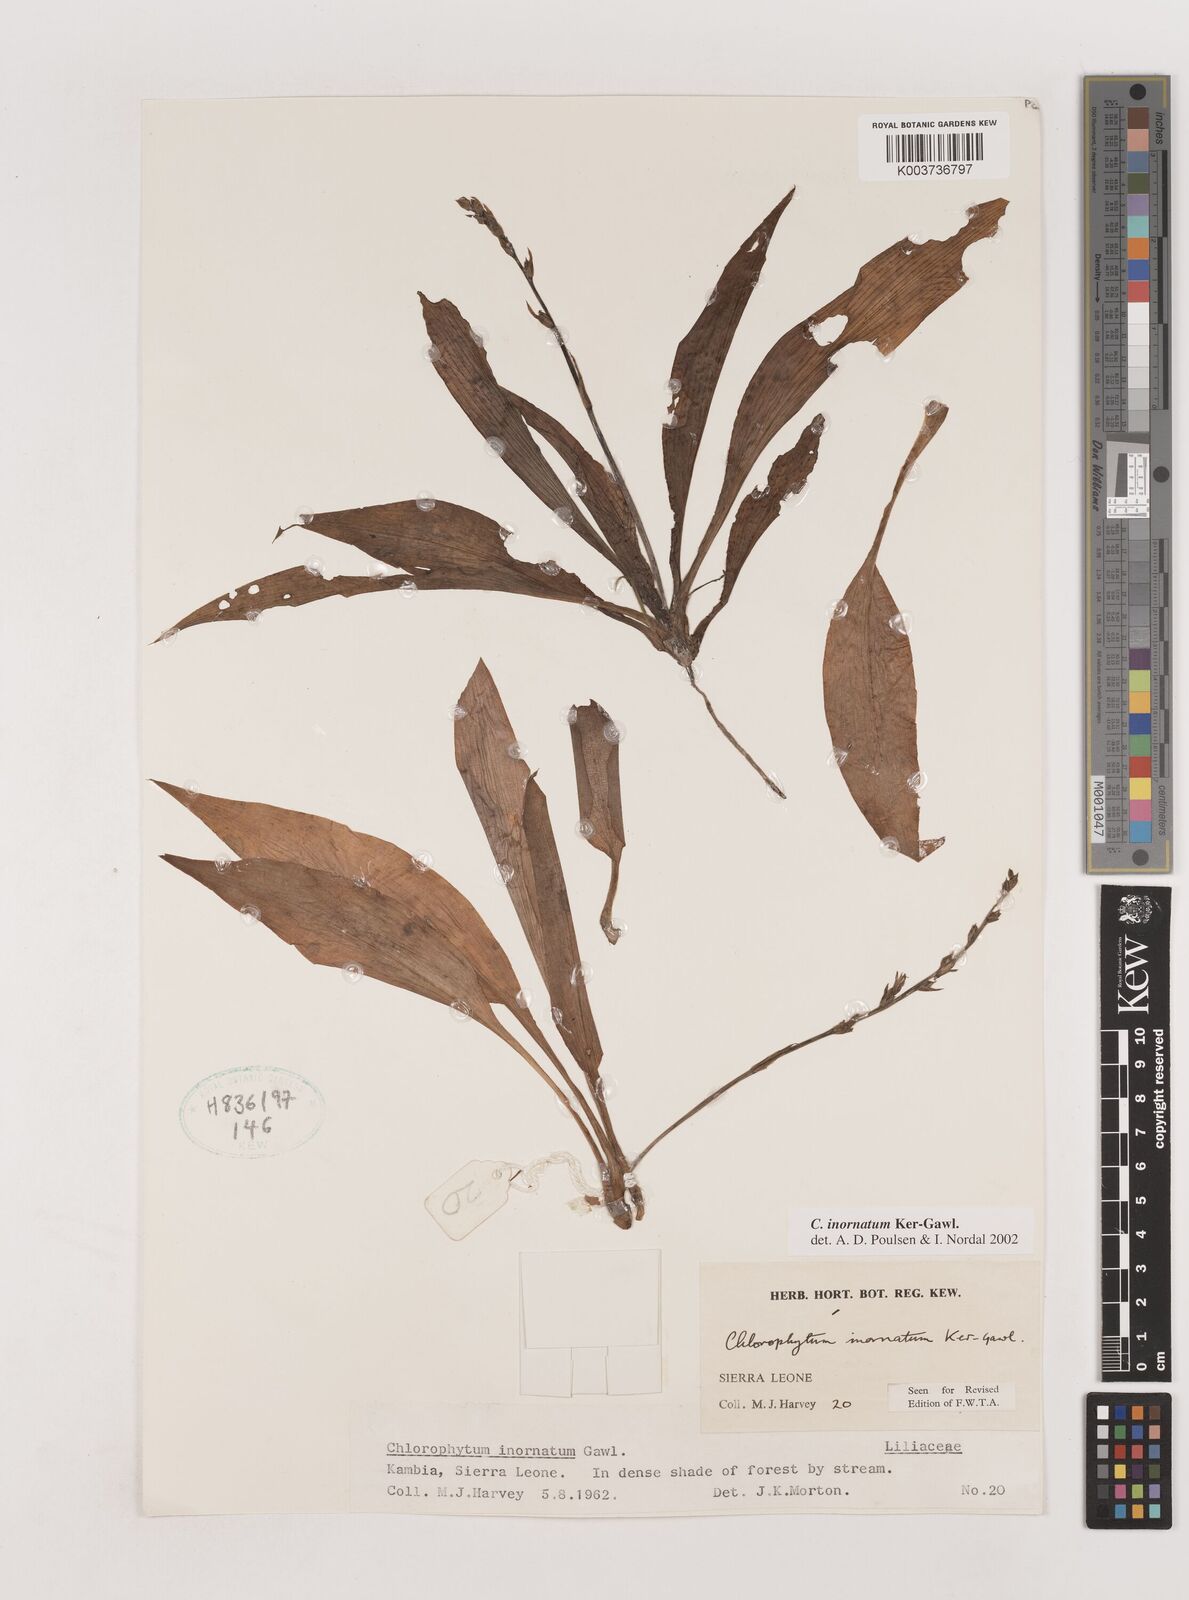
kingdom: Plantae
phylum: Tracheophyta
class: Liliopsida
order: Asparagales
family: Asparagaceae
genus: Chlorophytum
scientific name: Chlorophytum inornatum
